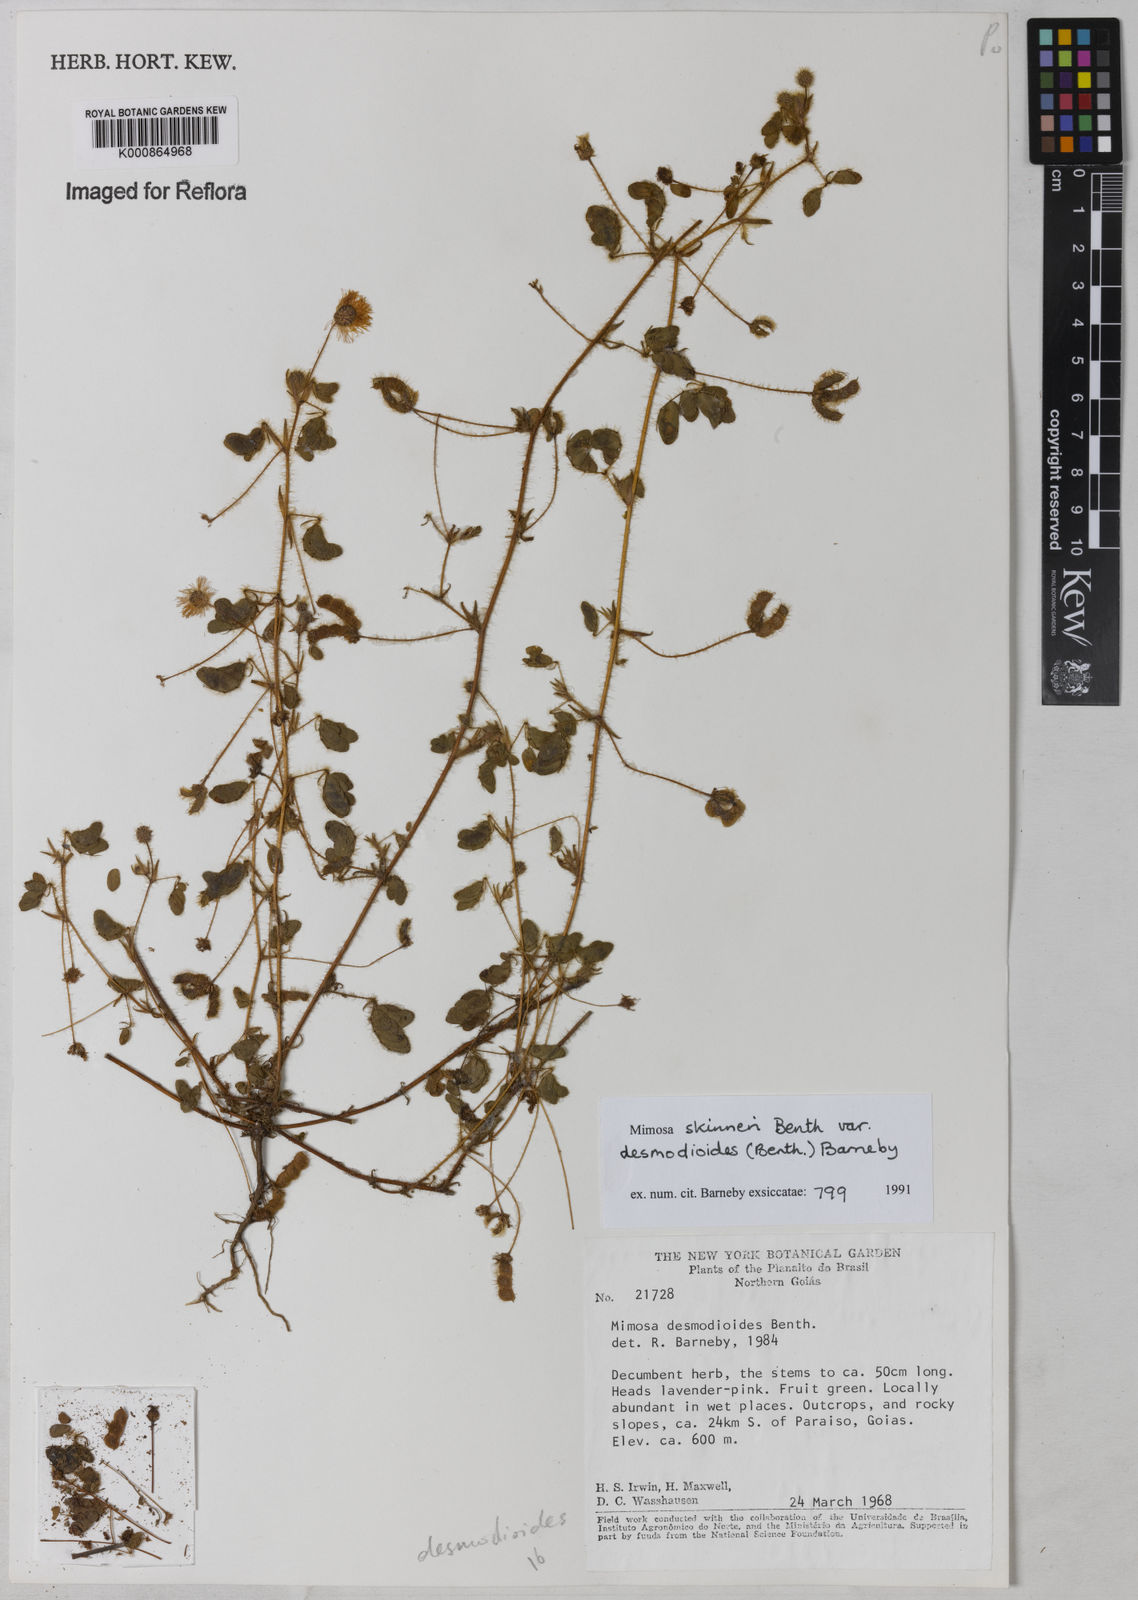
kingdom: Plantae
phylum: Tracheophyta
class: Magnoliopsida
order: Fabales
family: Fabaceae
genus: Mimosa
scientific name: Mimosa skinneri
